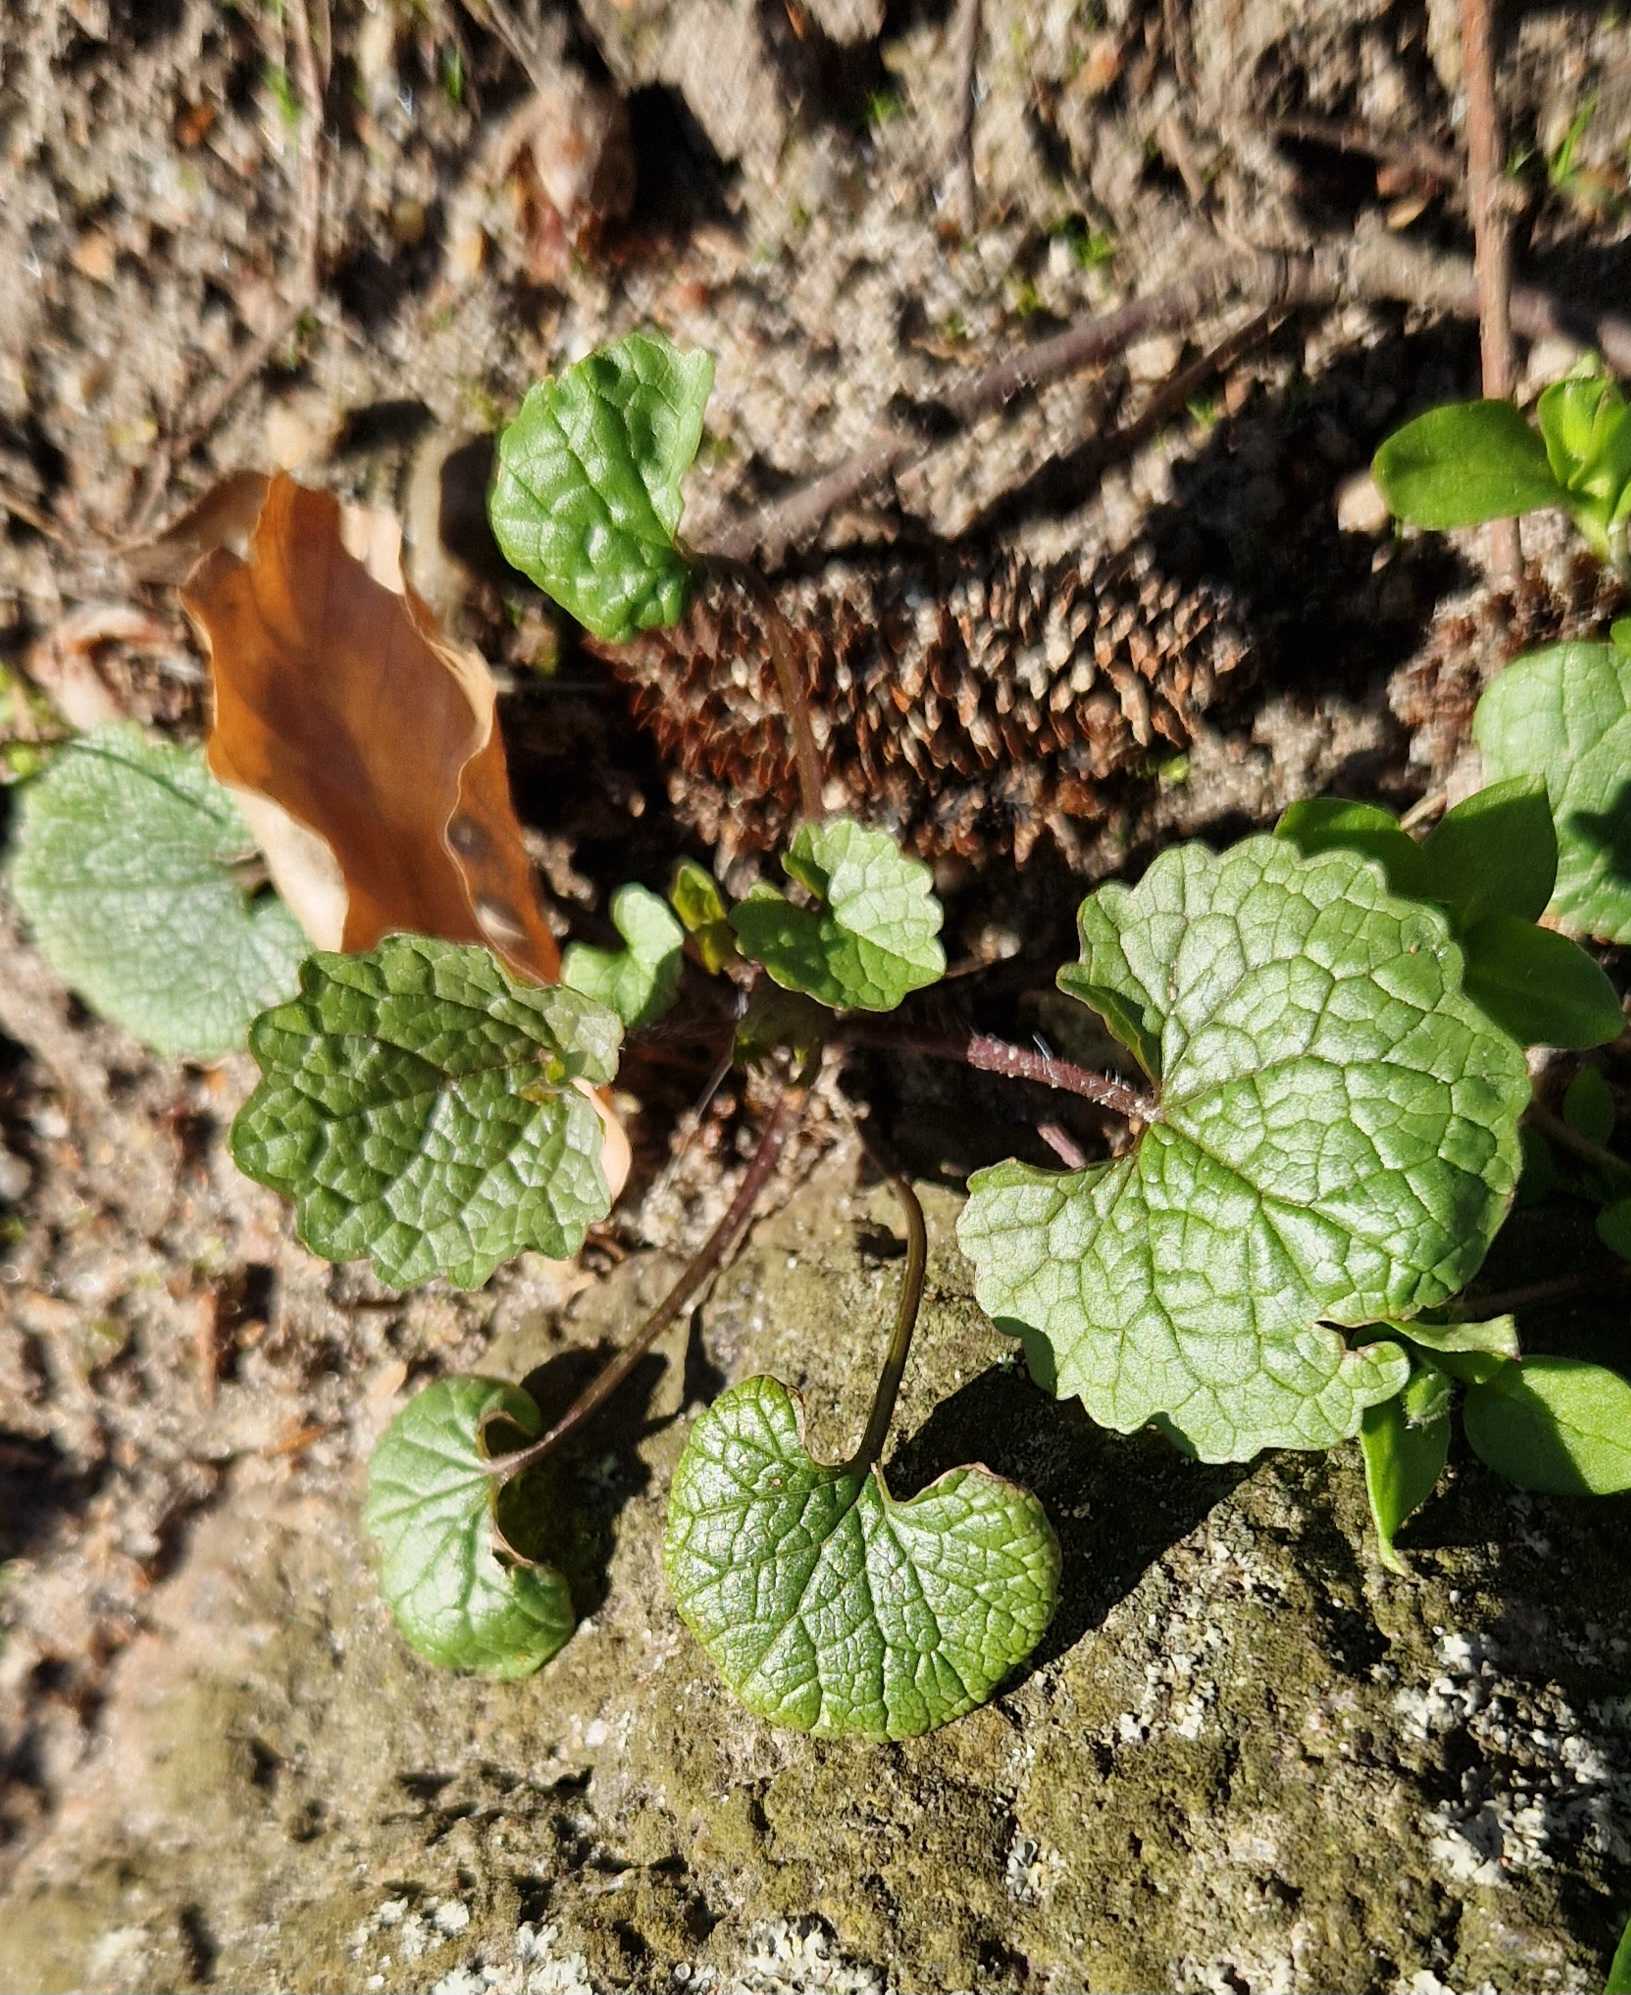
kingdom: Plantae
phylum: Tracheophyta
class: Magnoliopsida
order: Brassicales
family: Brassicaceae
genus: Alliaria
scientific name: Alliaria petiolata
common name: Løgkarse
